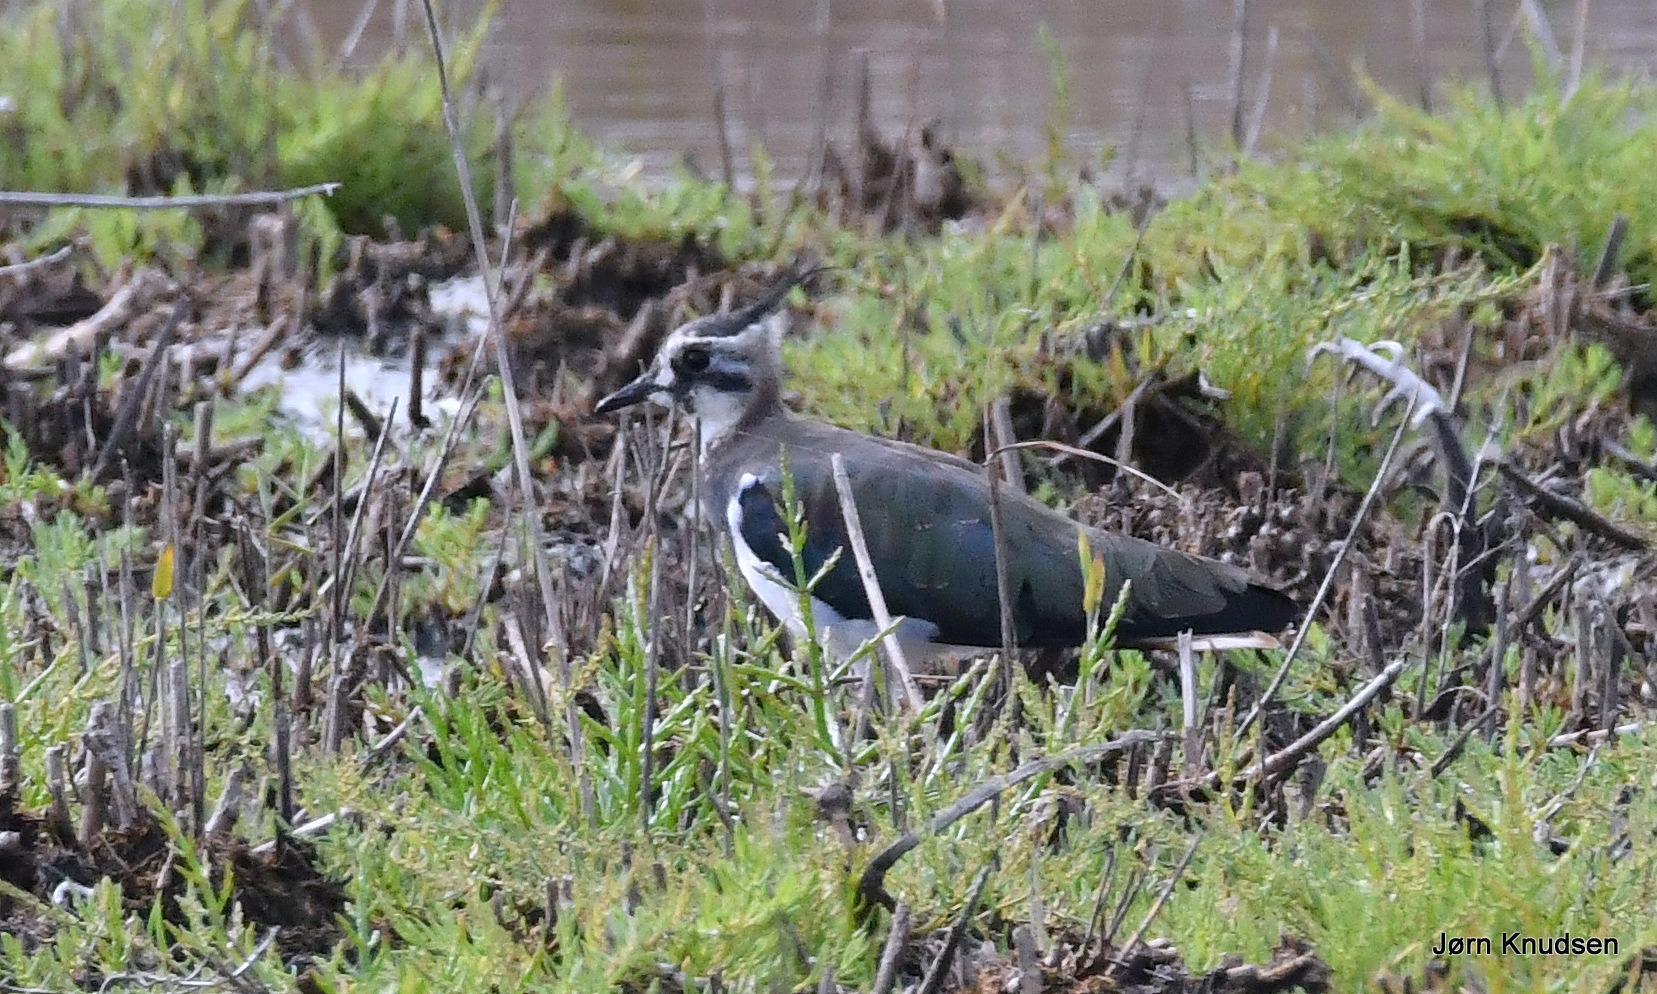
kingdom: Animalia
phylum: Chordata
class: Aves
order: Charadriiformes
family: Charadriidae
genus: Vanellus
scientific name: Vanellus vanellus
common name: Vibe
